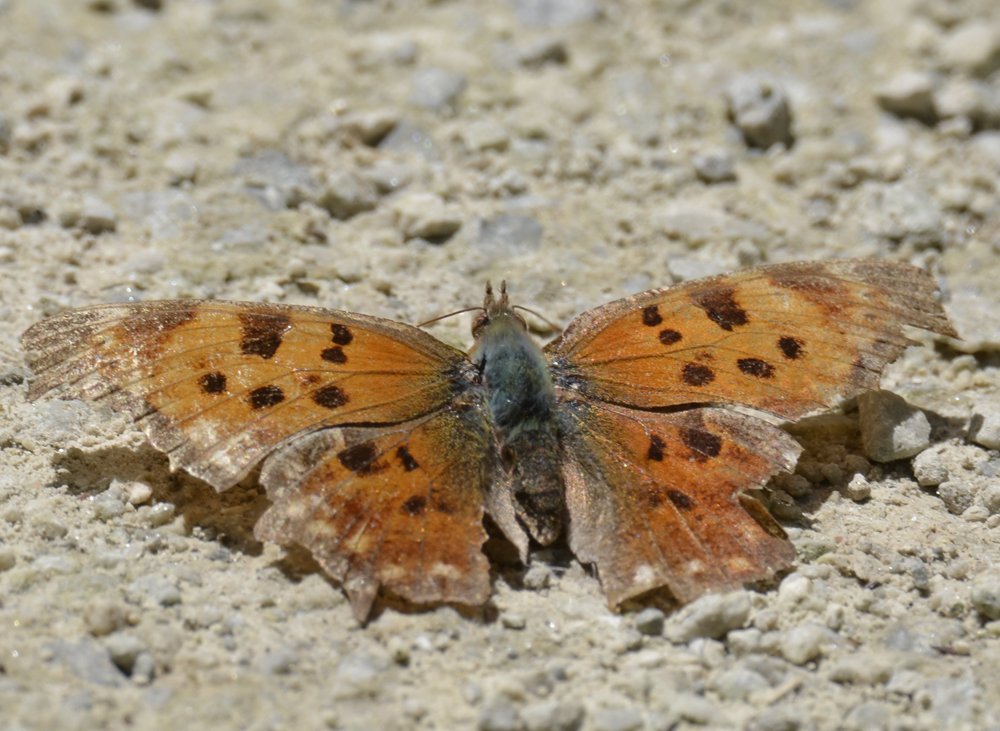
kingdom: Animalia
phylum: Arthropoda
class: Insecta
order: Lepidoptera
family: Nymphalidae
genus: Polygonia
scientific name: Polygonia comma
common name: Eastern Comma
